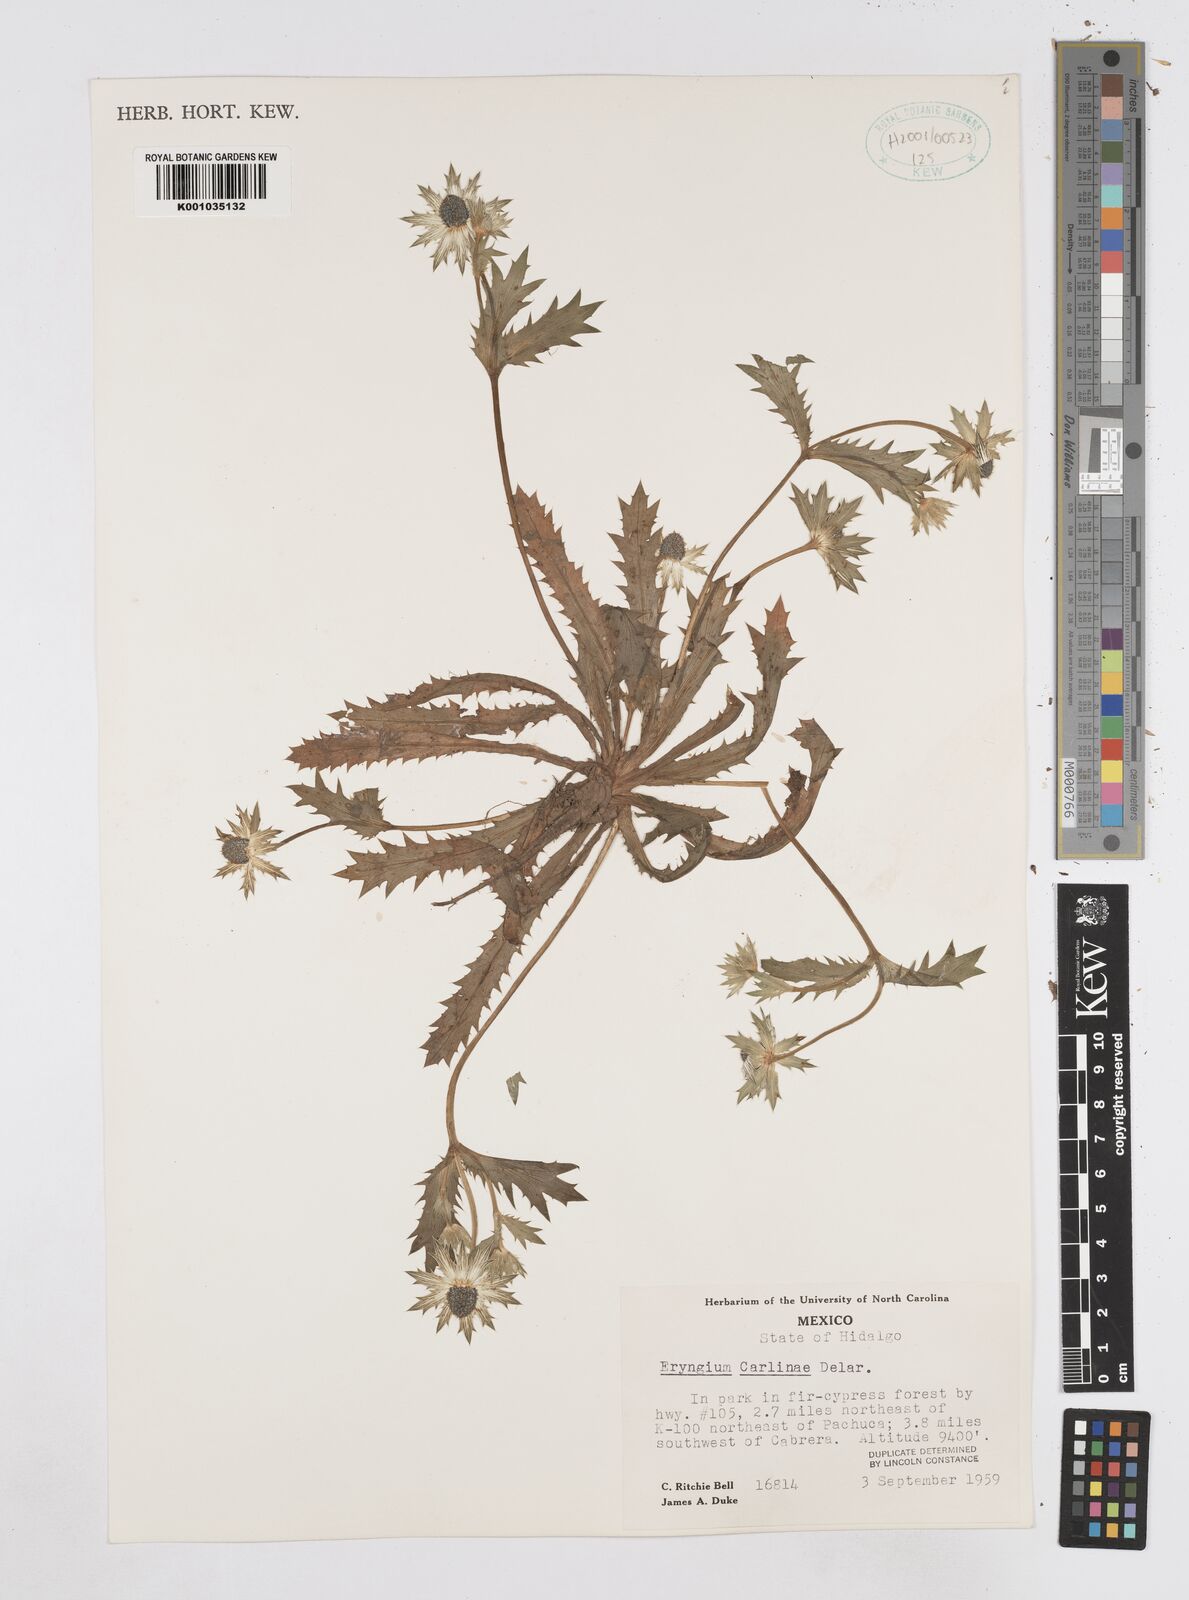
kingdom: Plantae
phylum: Tracheophyta
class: Magnoliopsida
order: Apiales
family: Apiaceae
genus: Eryngium
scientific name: Eryngium carlinae
